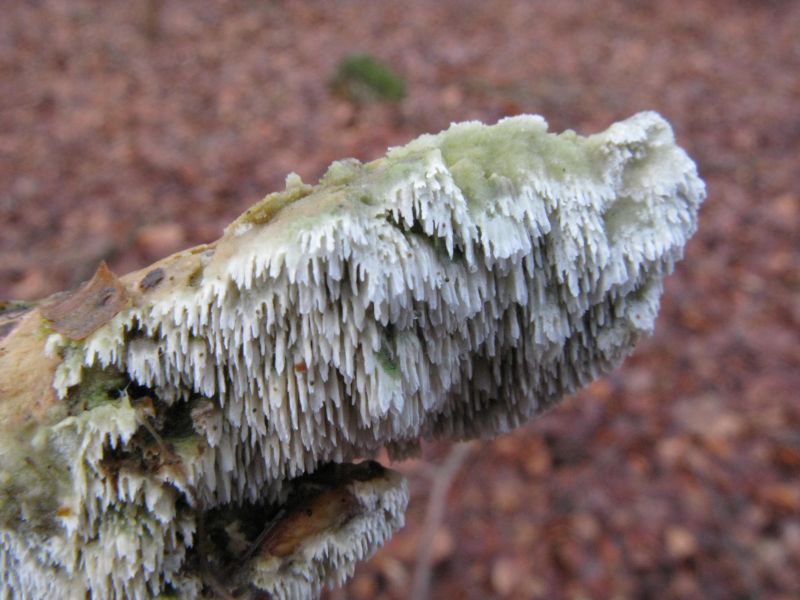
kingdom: Fungi
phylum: Basidiomycota
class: Agaricomycetes
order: Hymenochaetales
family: Schizoporaceae
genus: Schizopora
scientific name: Schizopora paradoxa
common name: hvid tandsvamp
